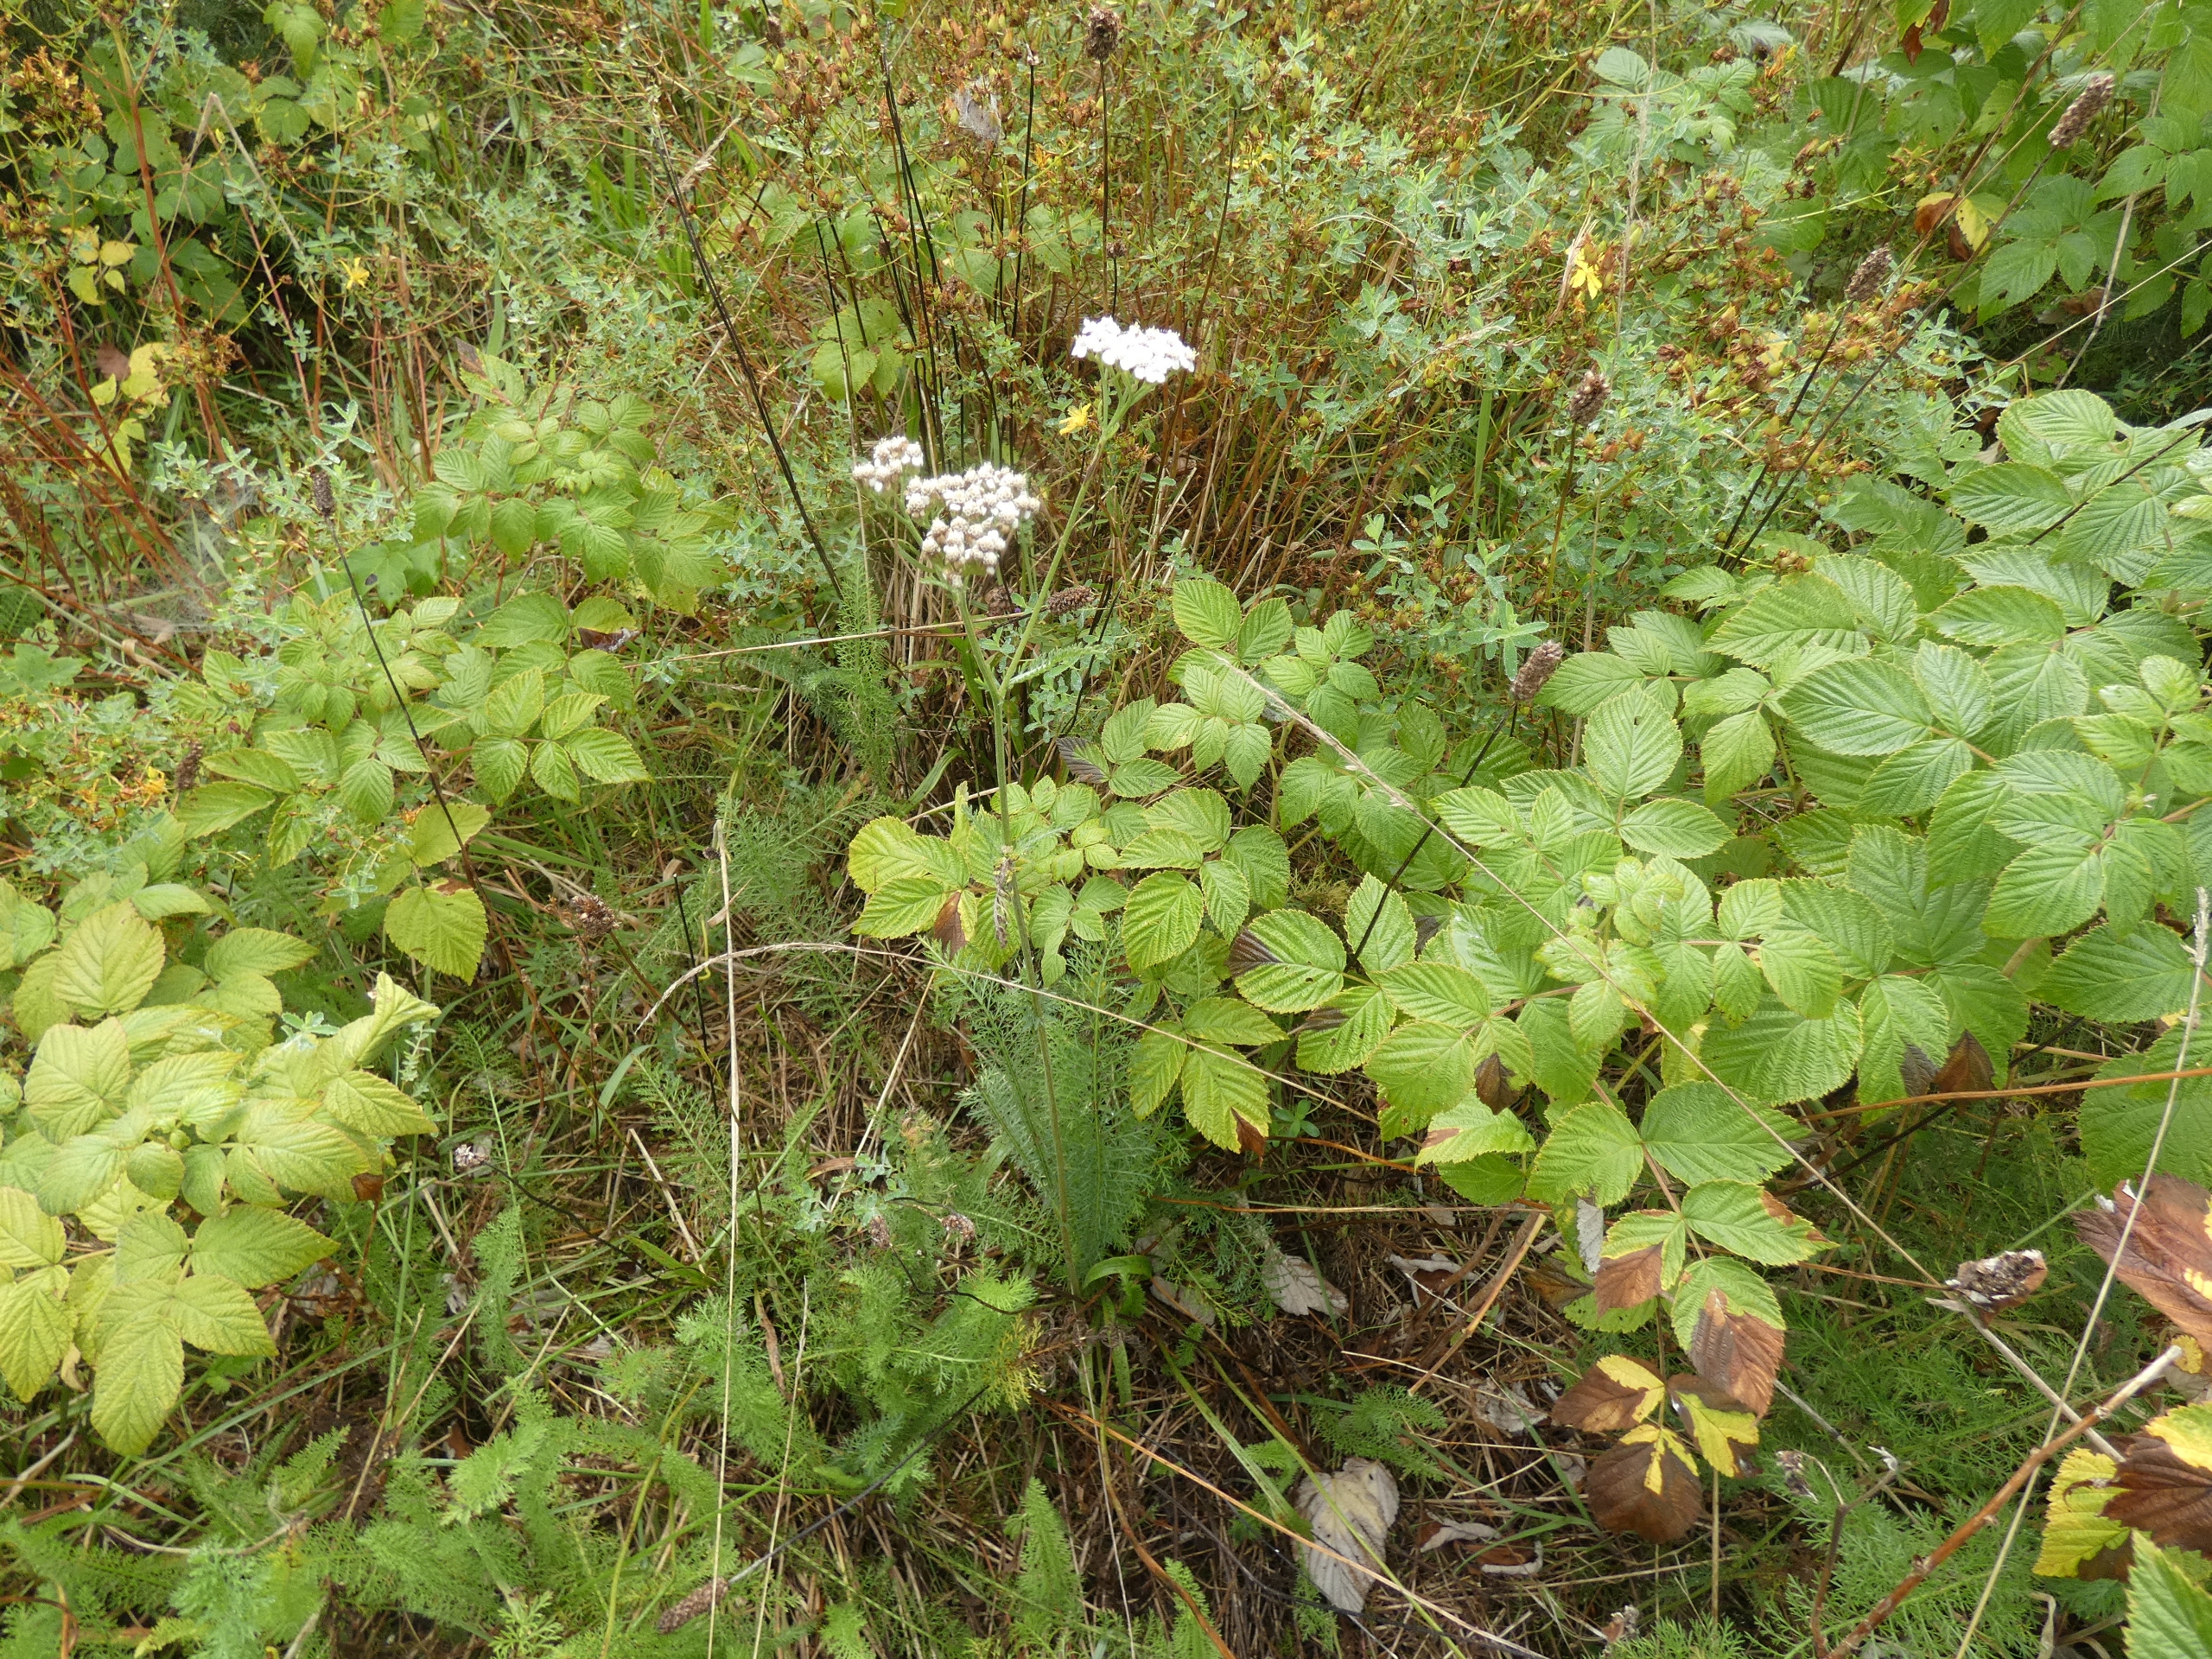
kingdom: Plantae
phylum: Tracheophyta
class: Magnoliopsida
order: Asterales
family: Asteraceae
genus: Achillea
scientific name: Achillea millefolium
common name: Almindelig røllike
